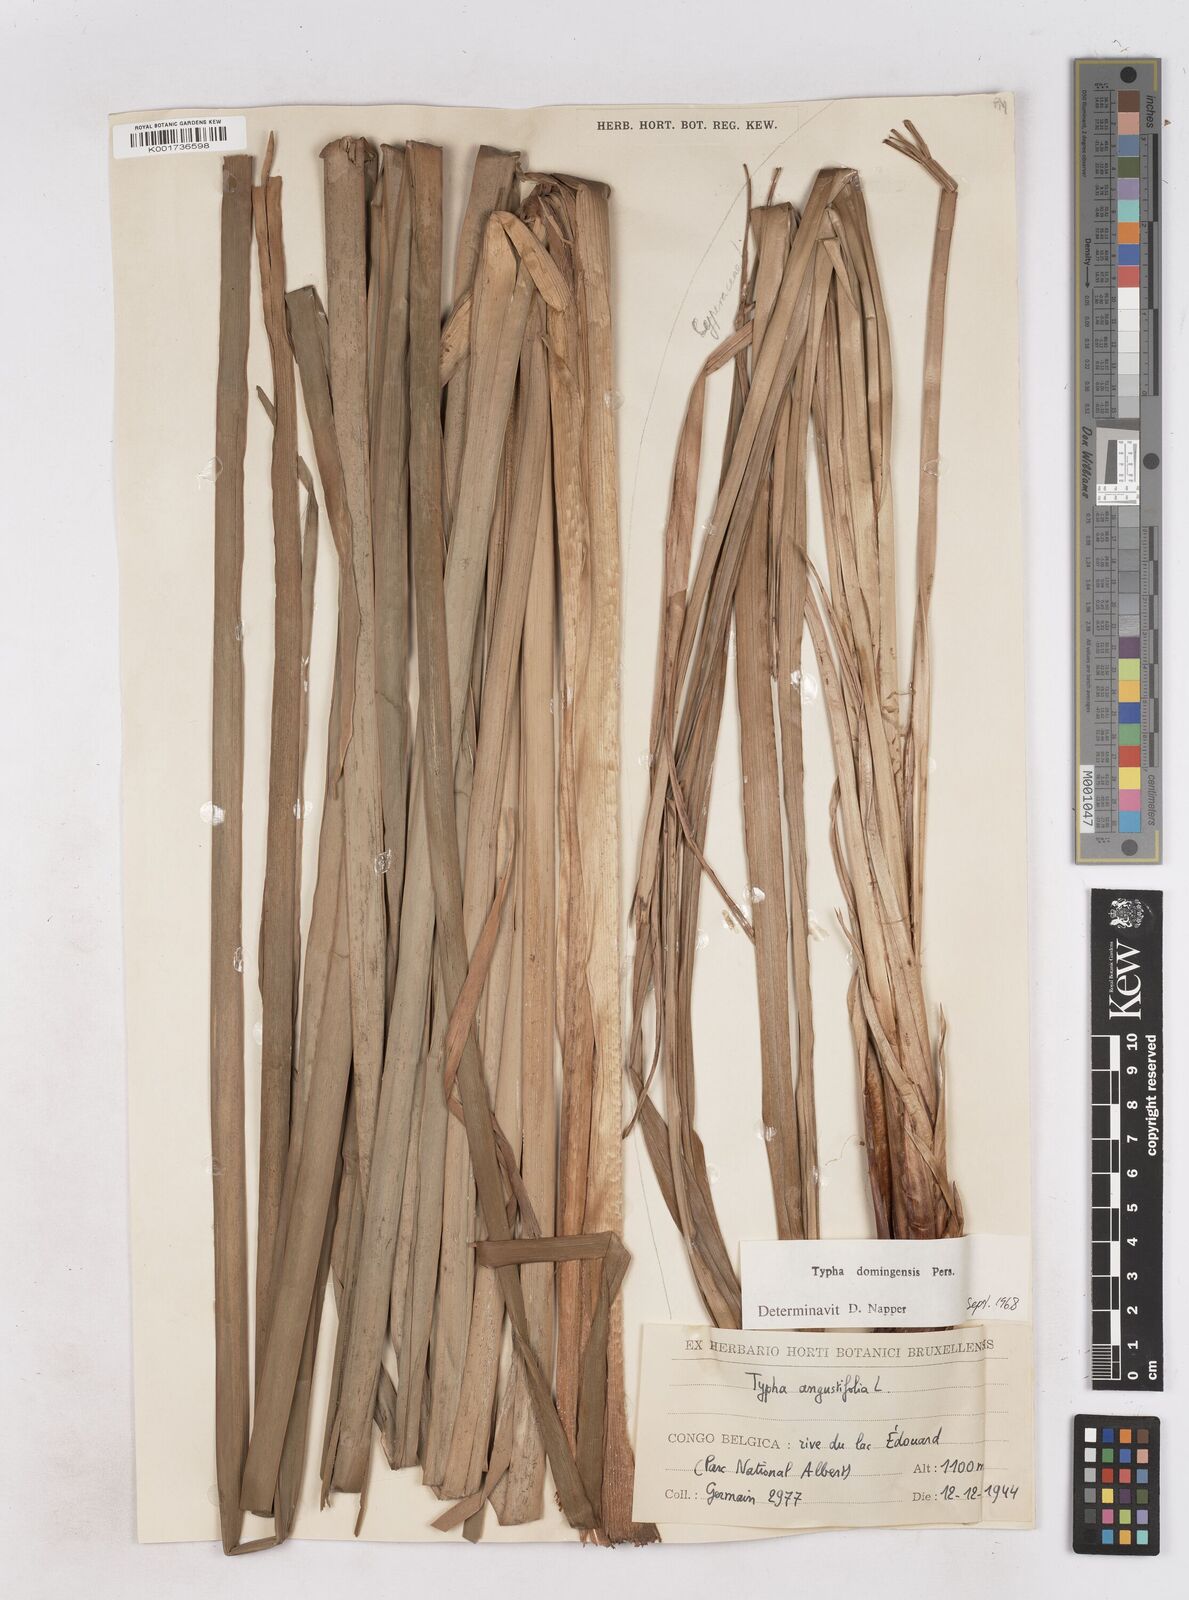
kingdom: Plantae
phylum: Tracheophyta
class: Liliopsida
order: Poales
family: Typhaceae
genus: Typha
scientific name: Typha domingensis
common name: Southern cattail
